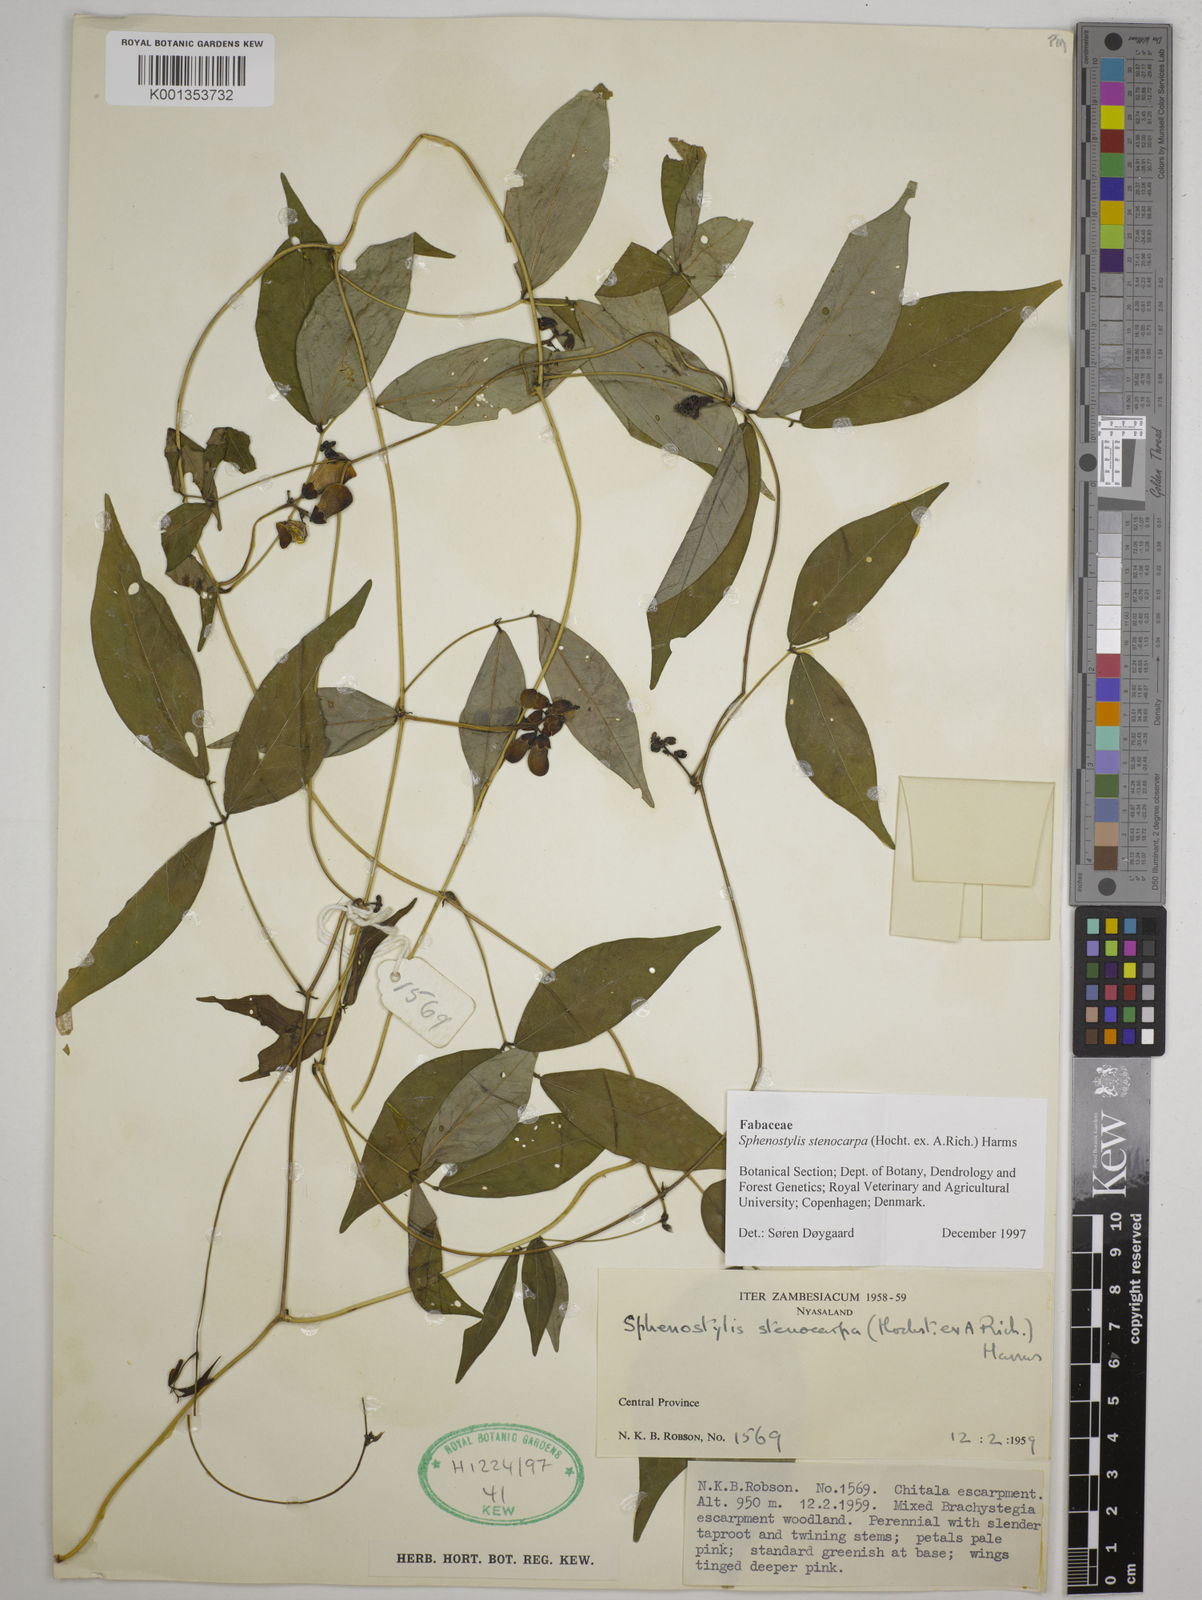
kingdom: Plantae
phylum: Tracheophyta
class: Magnoliopsida
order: Fabales
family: Fabaceae
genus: Sphenostylis
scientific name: Sphenostylis stenocarpa
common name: Yam-pea
